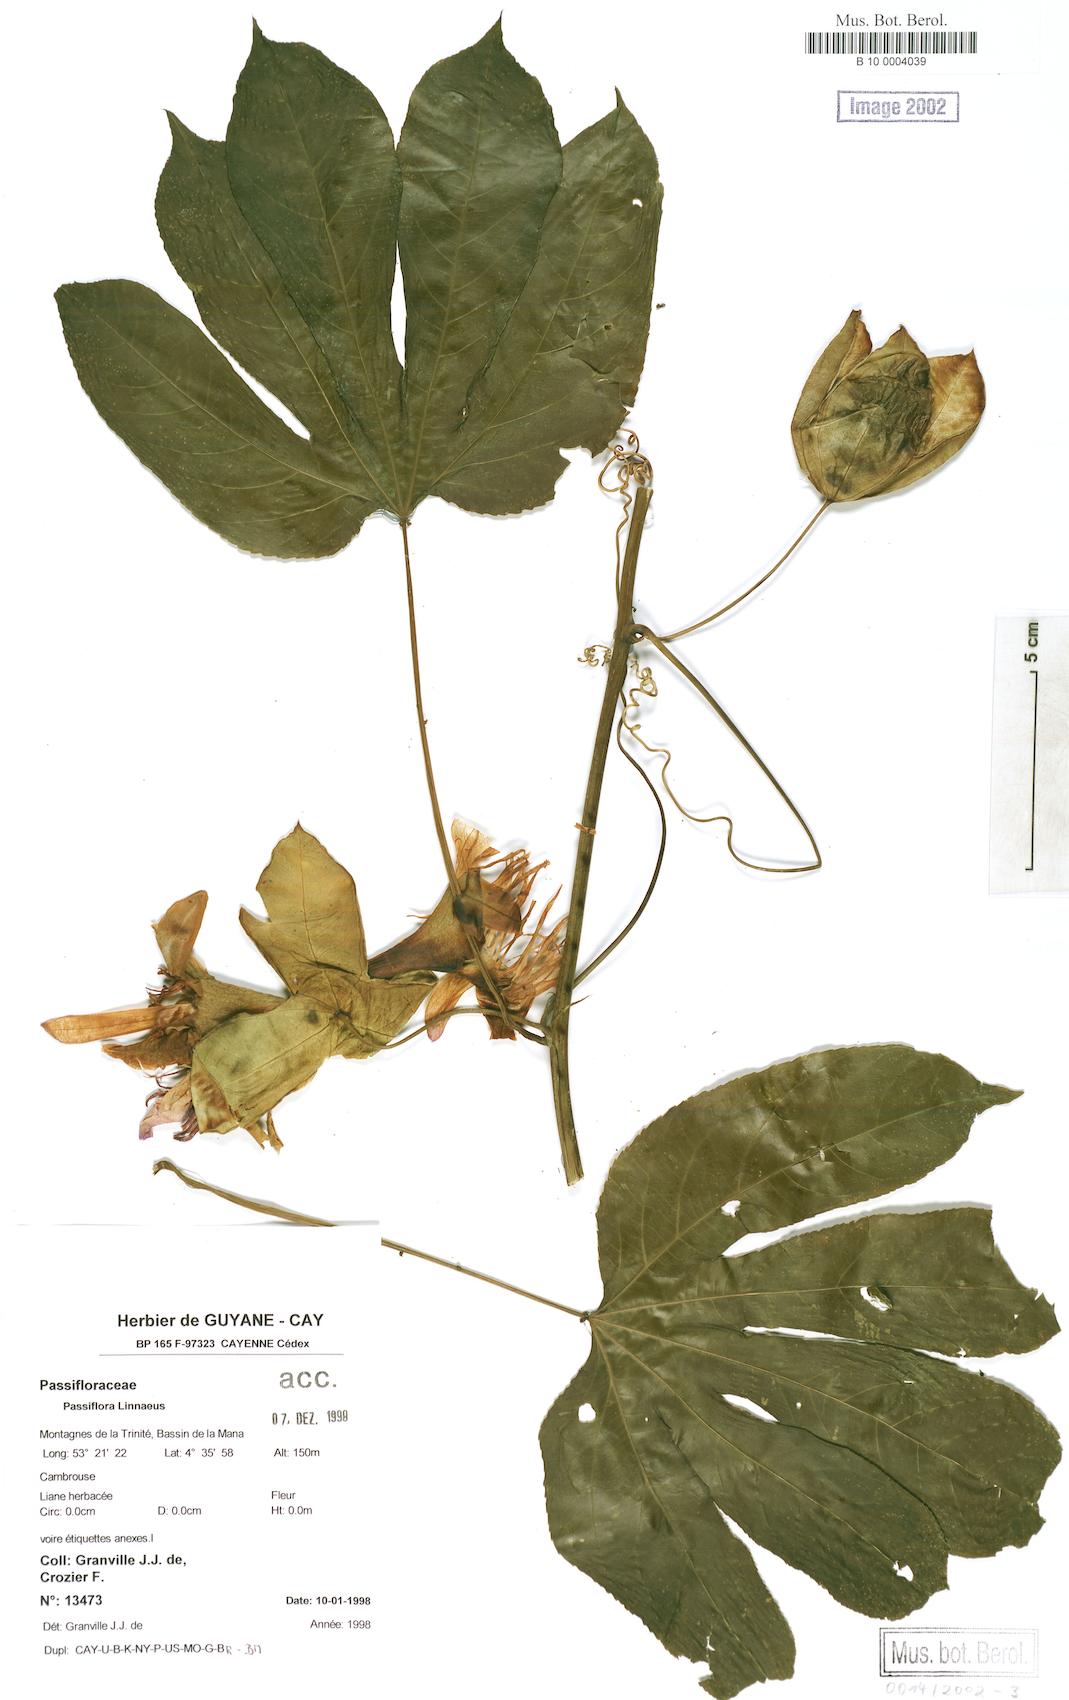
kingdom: Plantae
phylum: Tracheophyta
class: Magnoliopsida
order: Malpighiales
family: Passifloraceae
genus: Passiflora
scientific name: Passiflora
